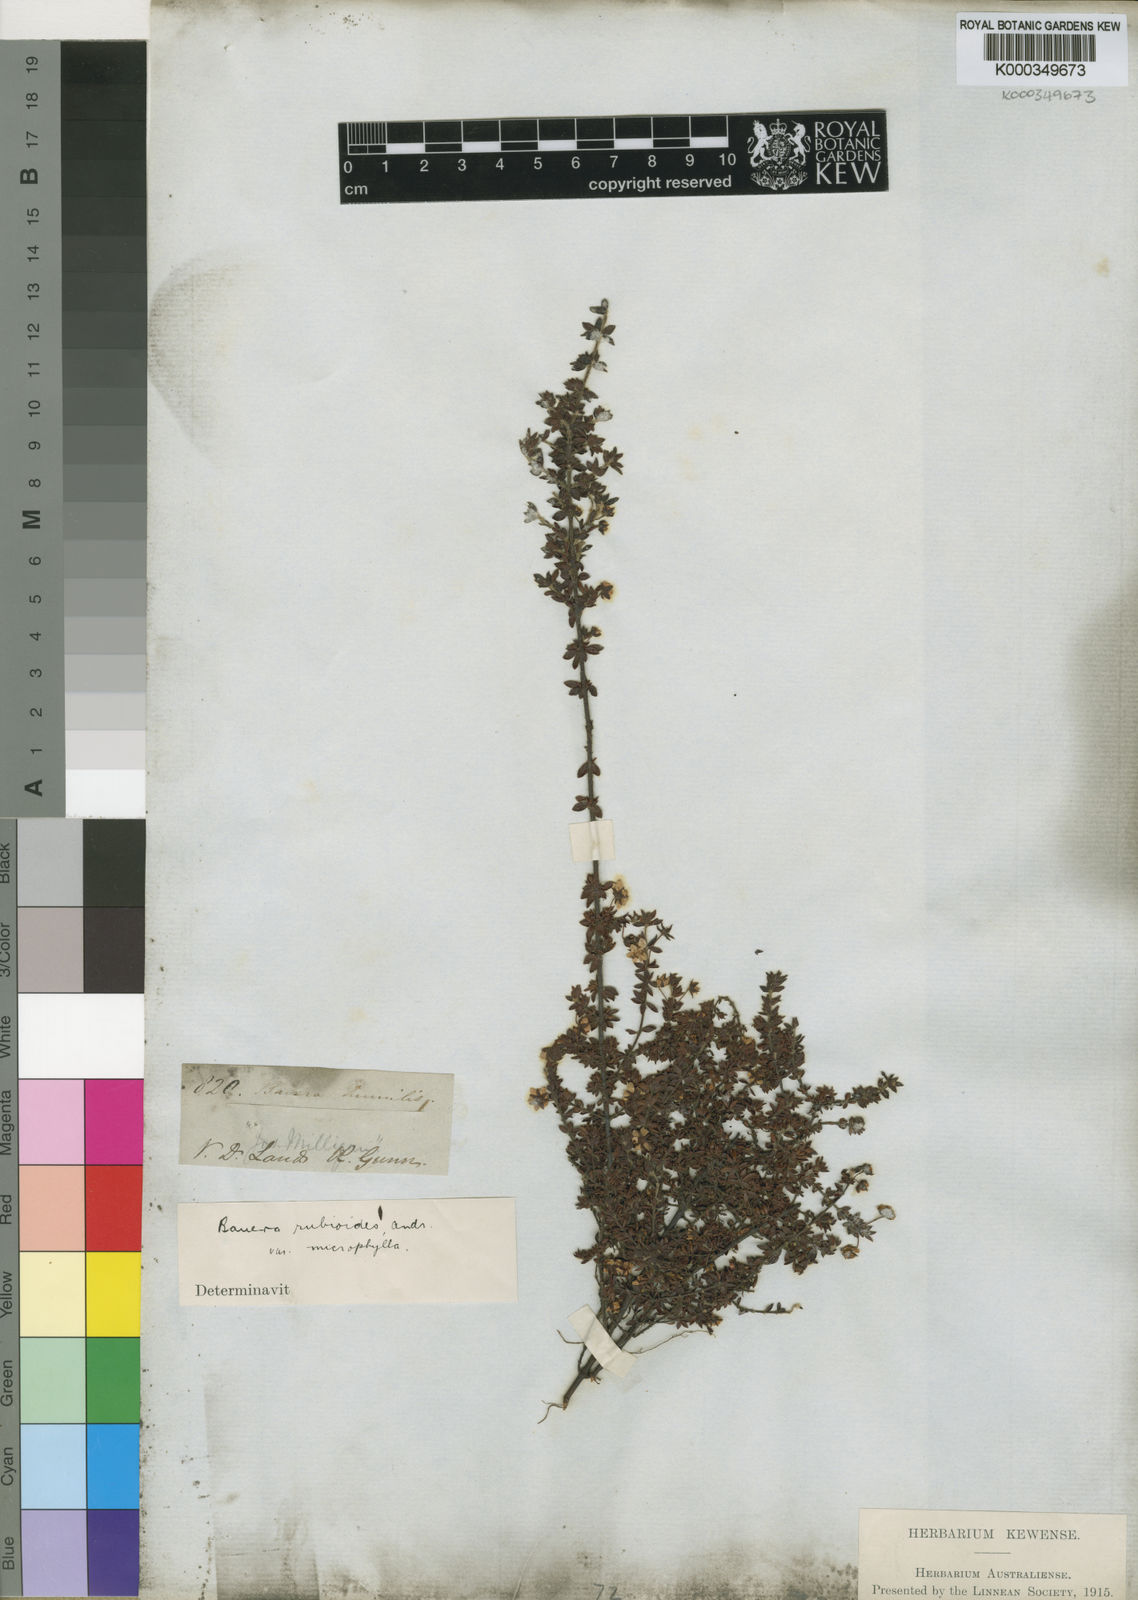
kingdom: Plantae
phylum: Tracheophyta
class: Magnoliopsida
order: Oxalidales
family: Cunoniaceae
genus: Bauera
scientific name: Bauera rubioides
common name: River-rose
